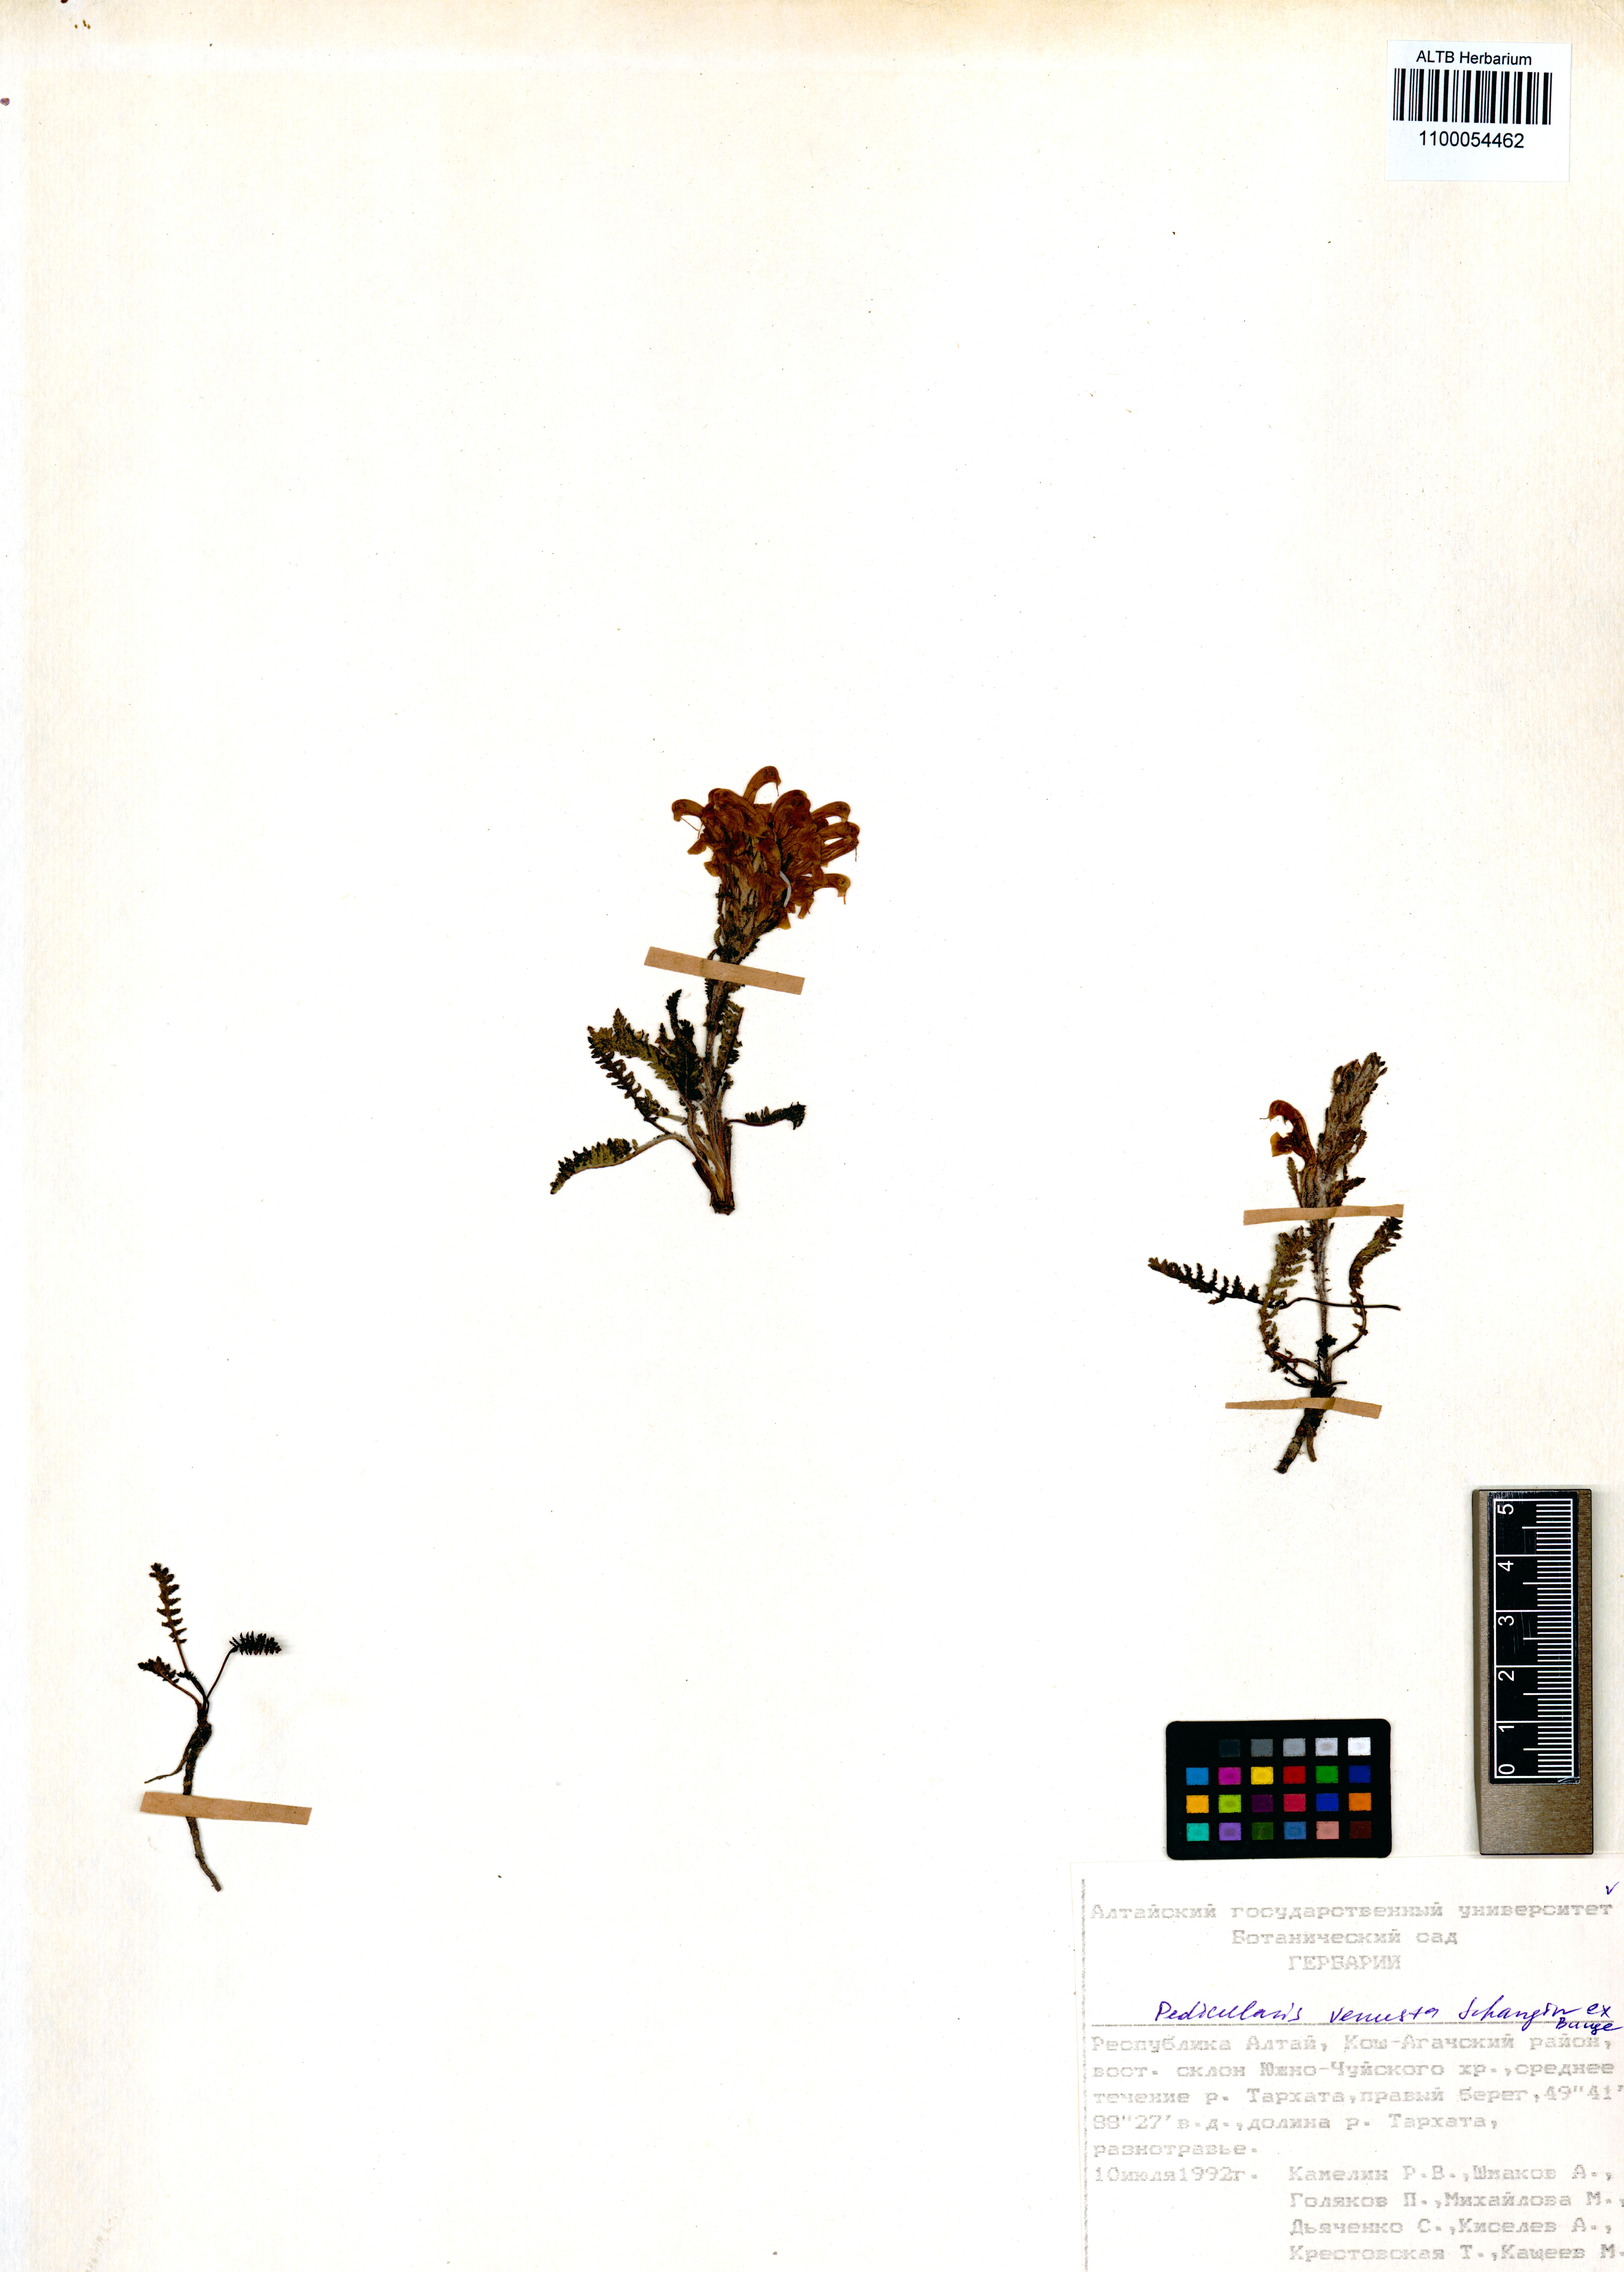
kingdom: Plantae
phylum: Tracheophyta
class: Magnoliopsida
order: Lamiales
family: Orobanchaceae
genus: Pedicularis
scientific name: Pedicularis venusta
